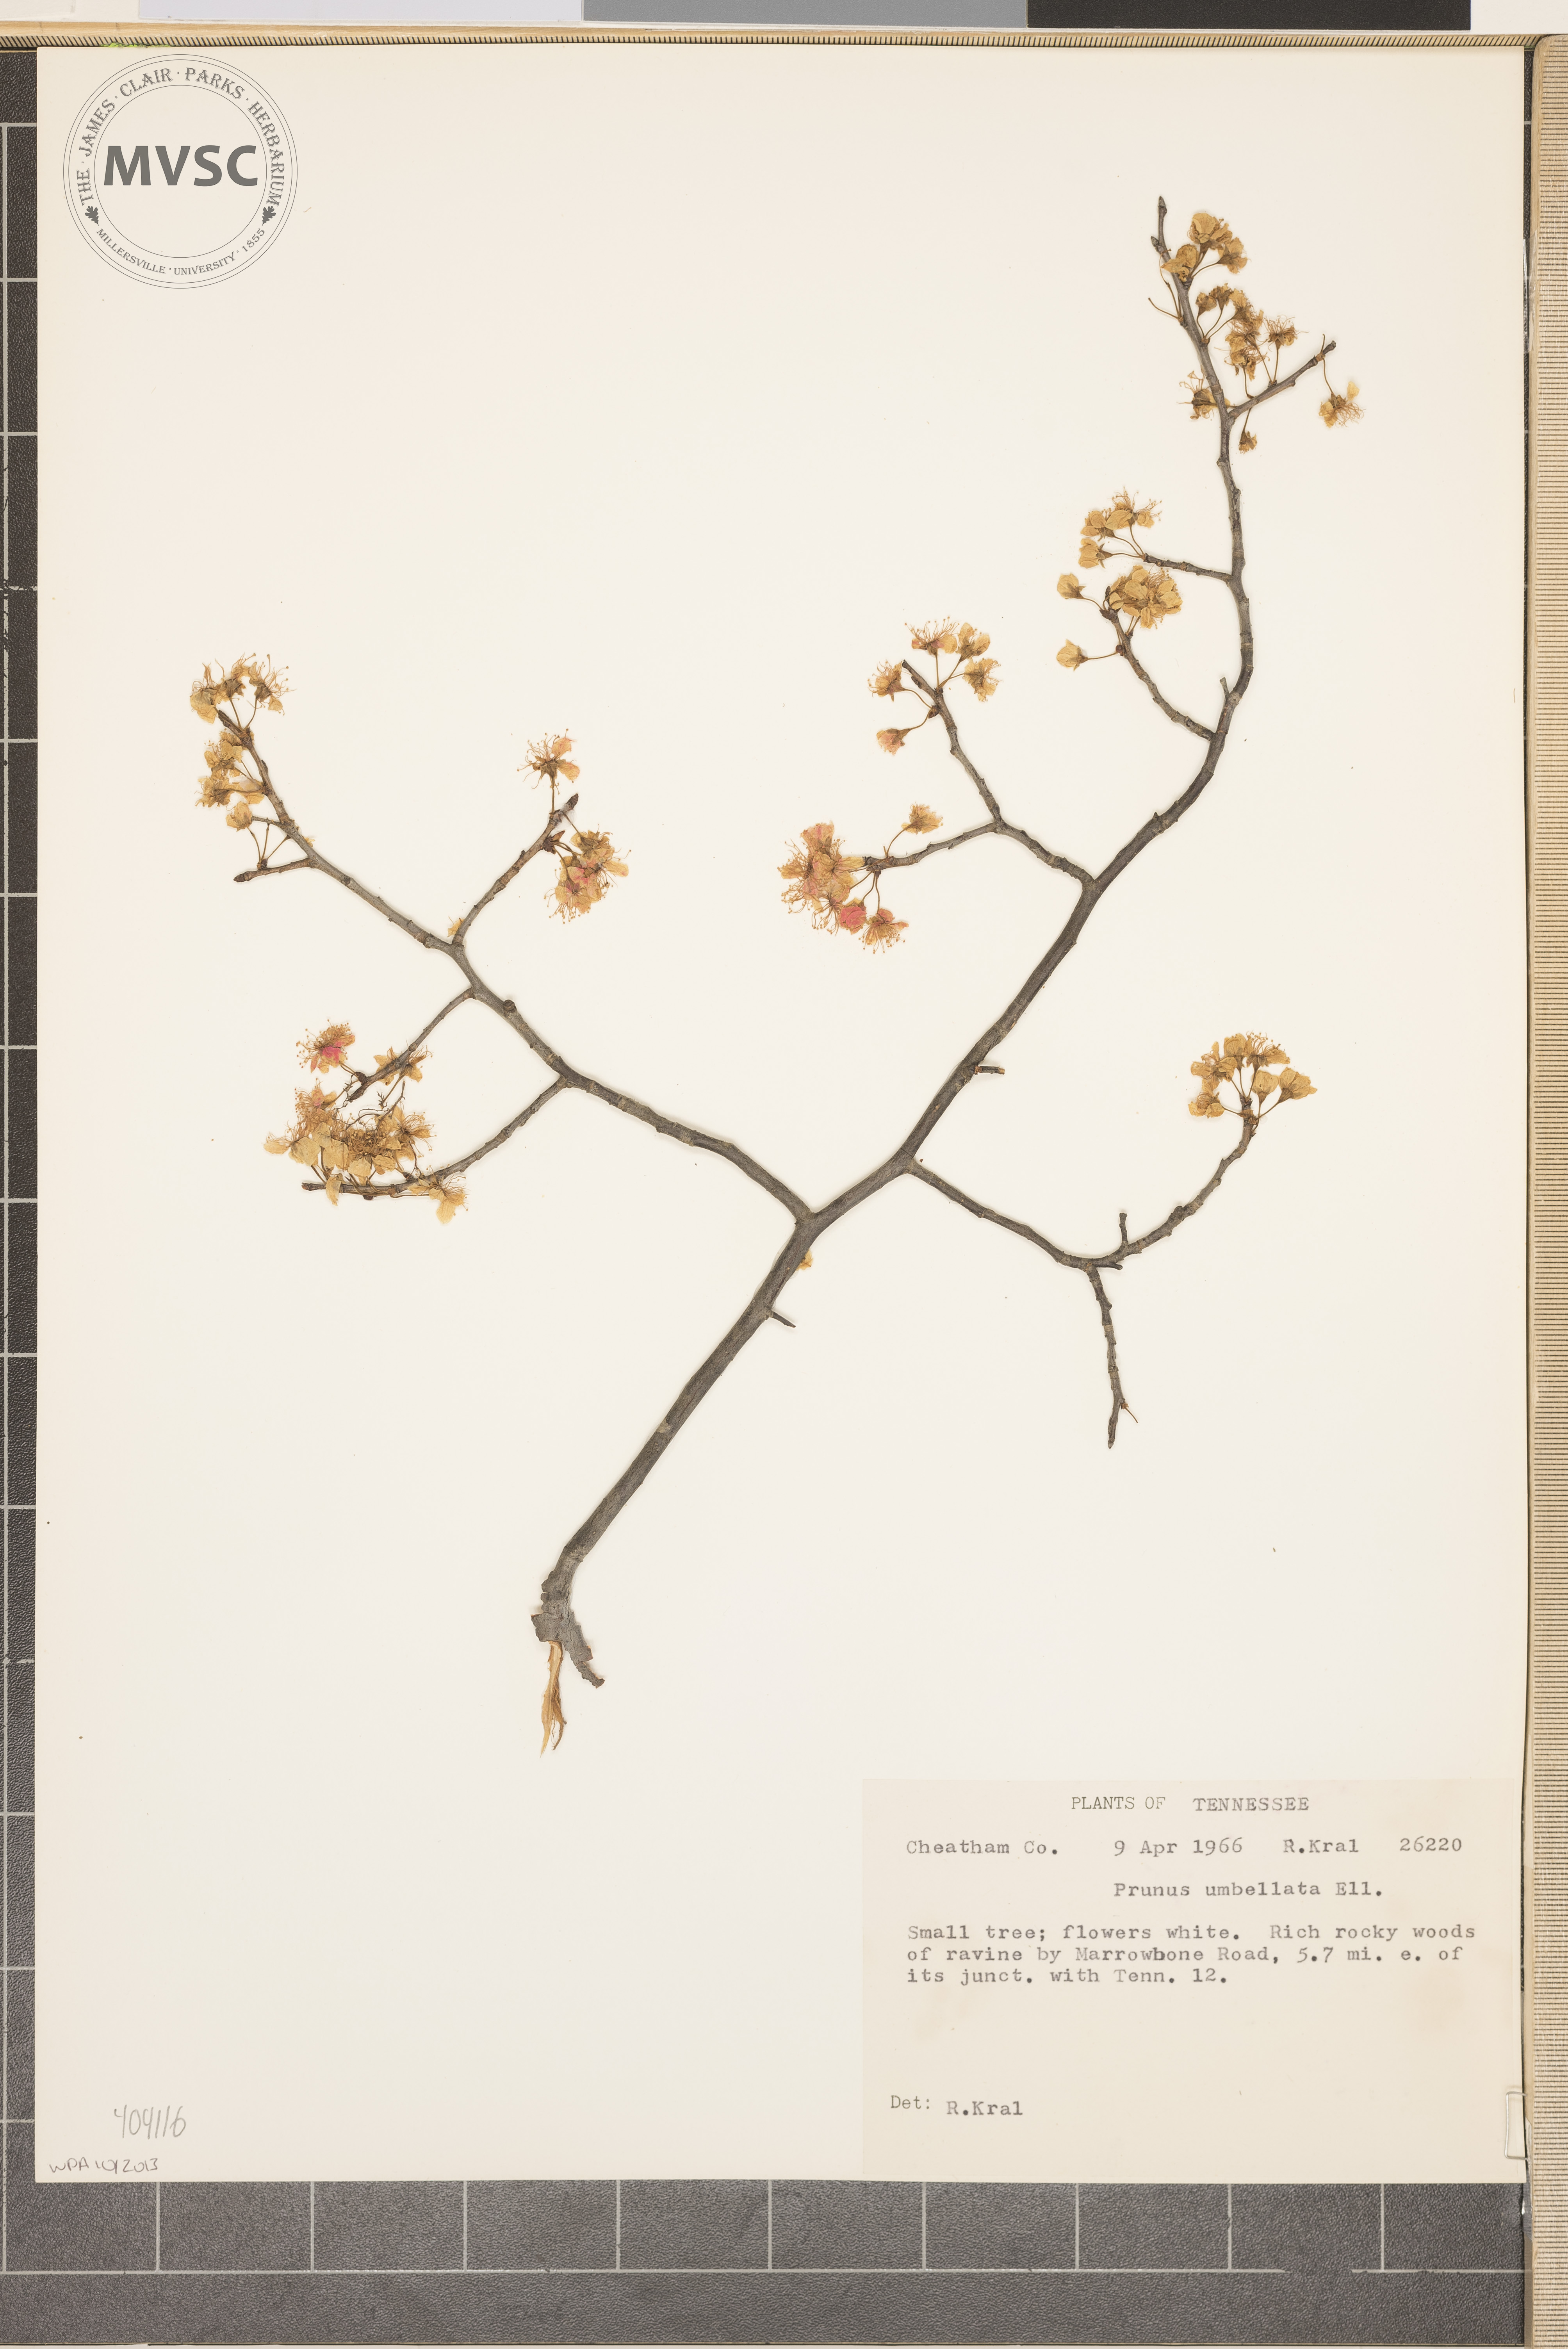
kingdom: Plantae
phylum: Tracheophyta
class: Magnoliopsida
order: Rosales
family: Rosaceae
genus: Prunus
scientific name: Prunus umbellata
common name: Allegheny plum
